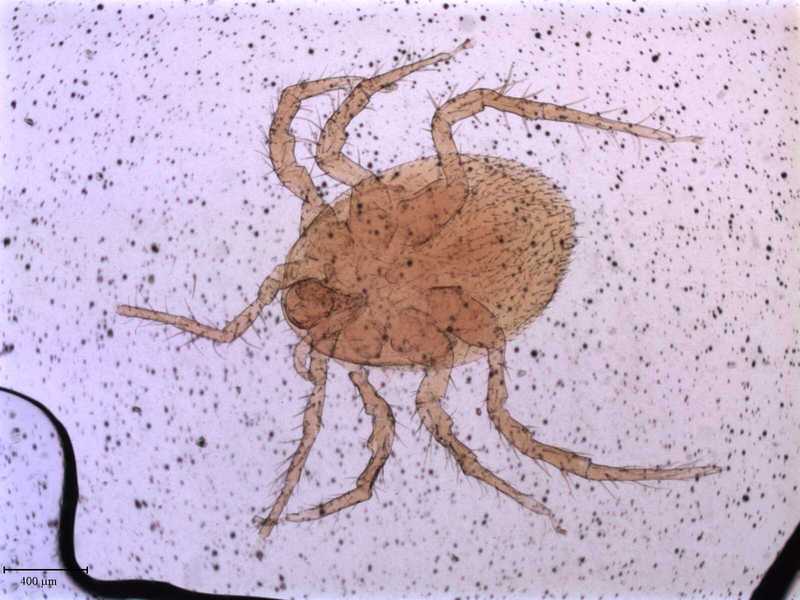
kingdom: Animalia
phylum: Arthropoda
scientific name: Arthropoda
